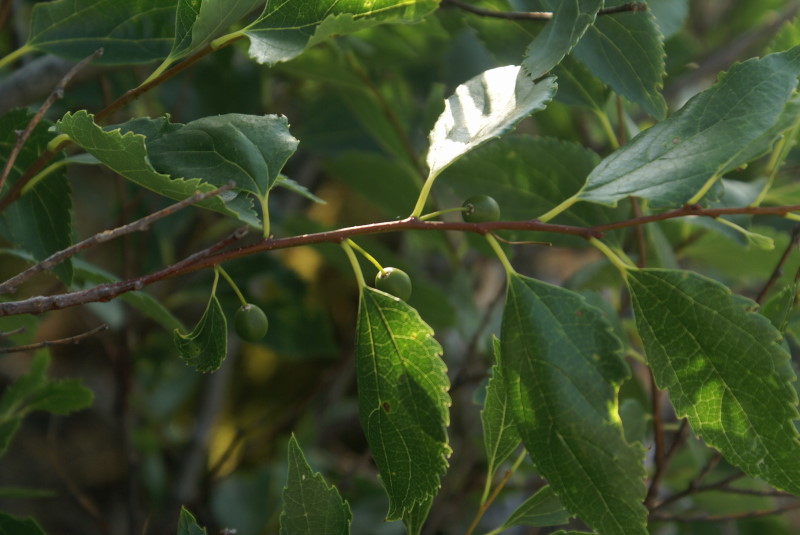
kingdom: Plantae
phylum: Tracheophyta
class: Magnoliopsida
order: Rosales
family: Cannabaceae
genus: Celtis
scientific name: Celtis occidentalis
